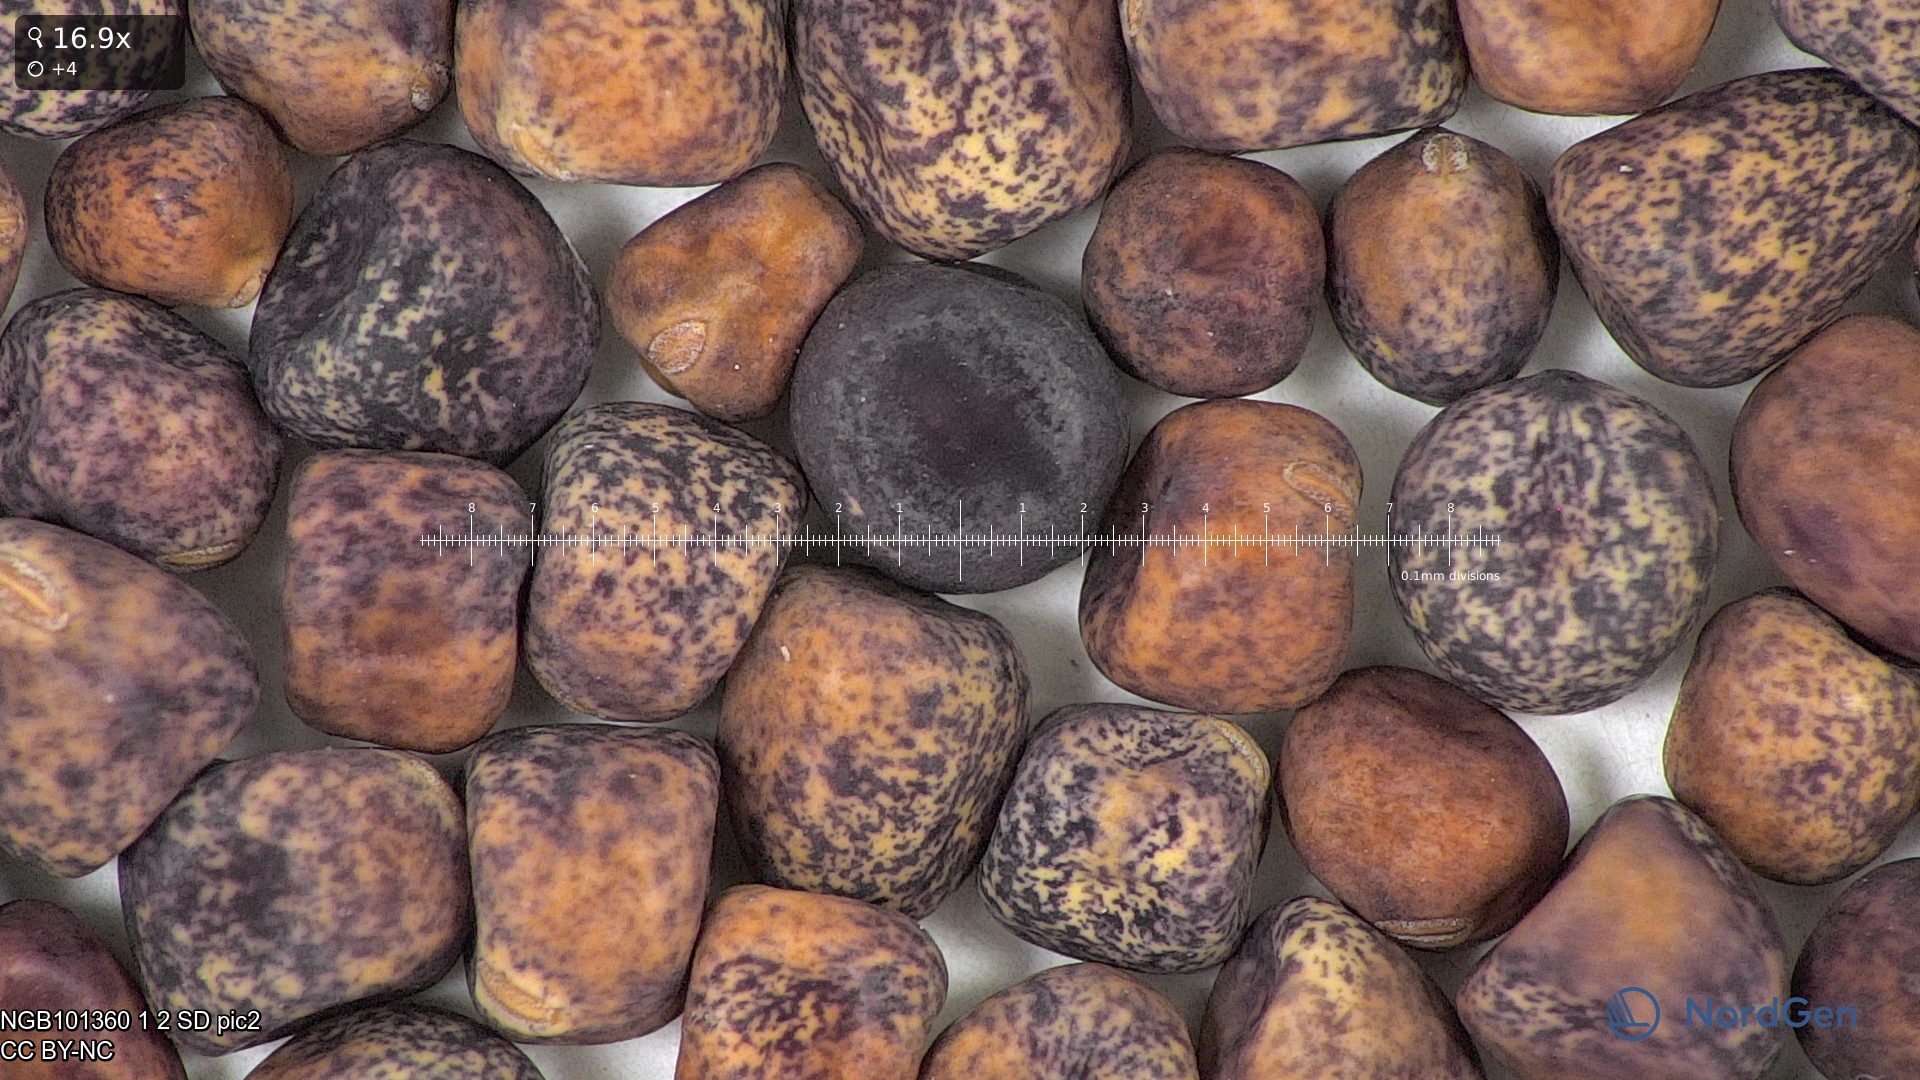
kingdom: Plantae
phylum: Tracheophyta
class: Magnoliopsida
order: Fabales
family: Fabaceae
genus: Lathyrus
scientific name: Lathyrus oleraceus
